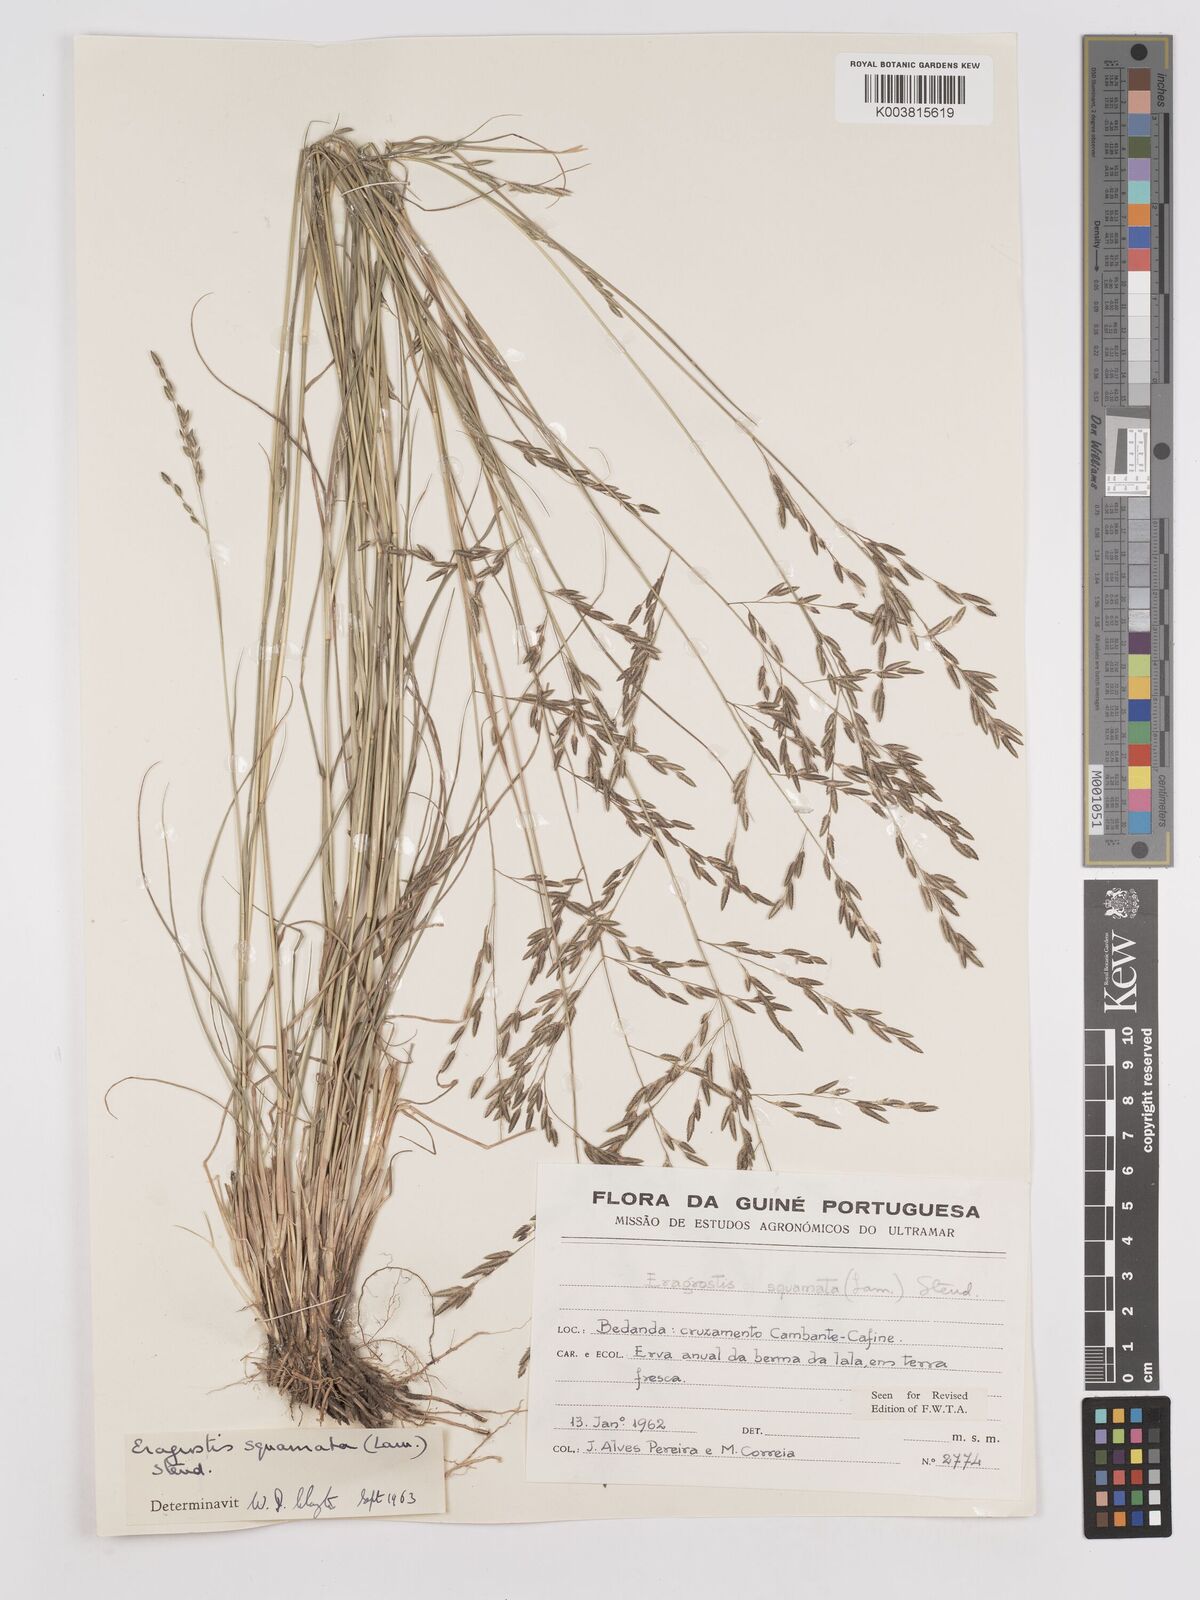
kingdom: Plantae
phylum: Tracheophyta
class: Liliopsida
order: Poales
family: Poaceae
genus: Eragrostis
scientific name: Eragrostis squamata
